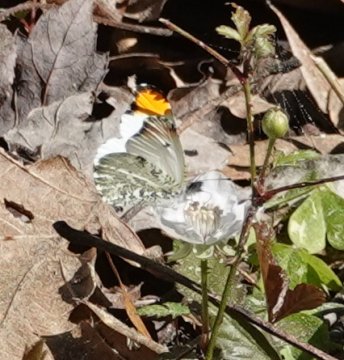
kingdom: Animalia
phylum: Arthropoda
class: Insecta
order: Lepidoptera
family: Pieridae
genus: Anthocharis
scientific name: Anthocharis midea
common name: Falcate Orangetip
